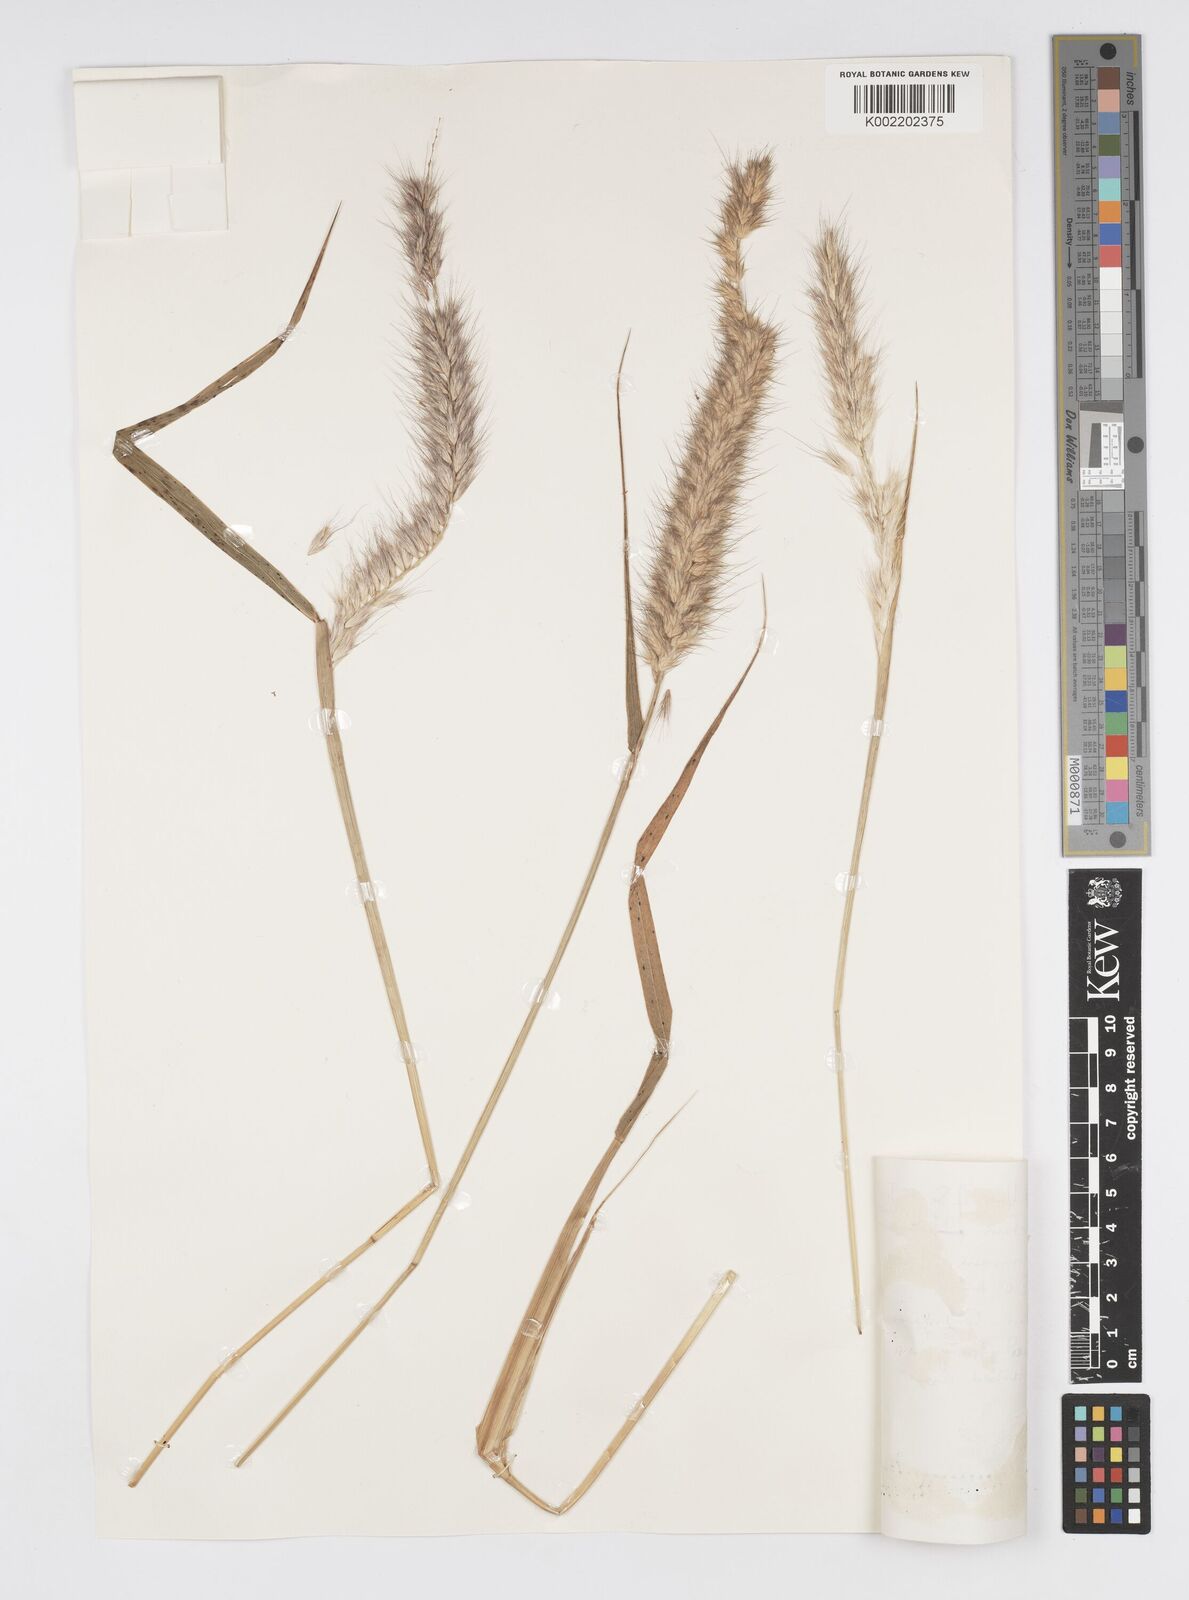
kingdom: Plantae
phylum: Tracheophyta
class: Liliopsida
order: Poales
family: Poaceae
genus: Cenchrus
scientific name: Cenchrus pedicellatus
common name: Hairy fountain grass
